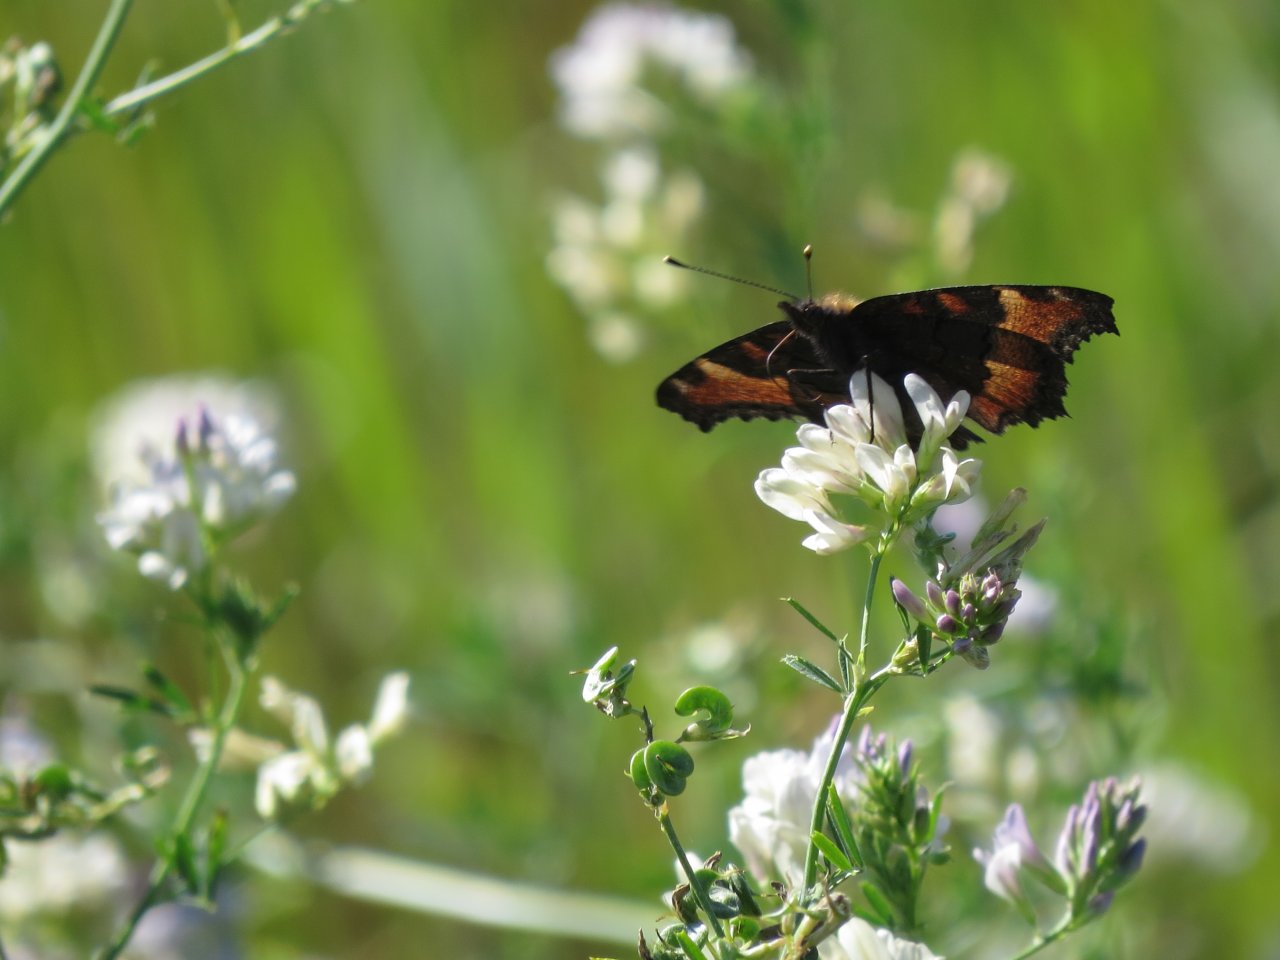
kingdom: Animalia
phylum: Arthropoda
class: Insecta
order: Lepidoptera
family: Nymphalidae
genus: Aglais
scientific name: Aglais milberti
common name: Milbert's Tortoiseshell
